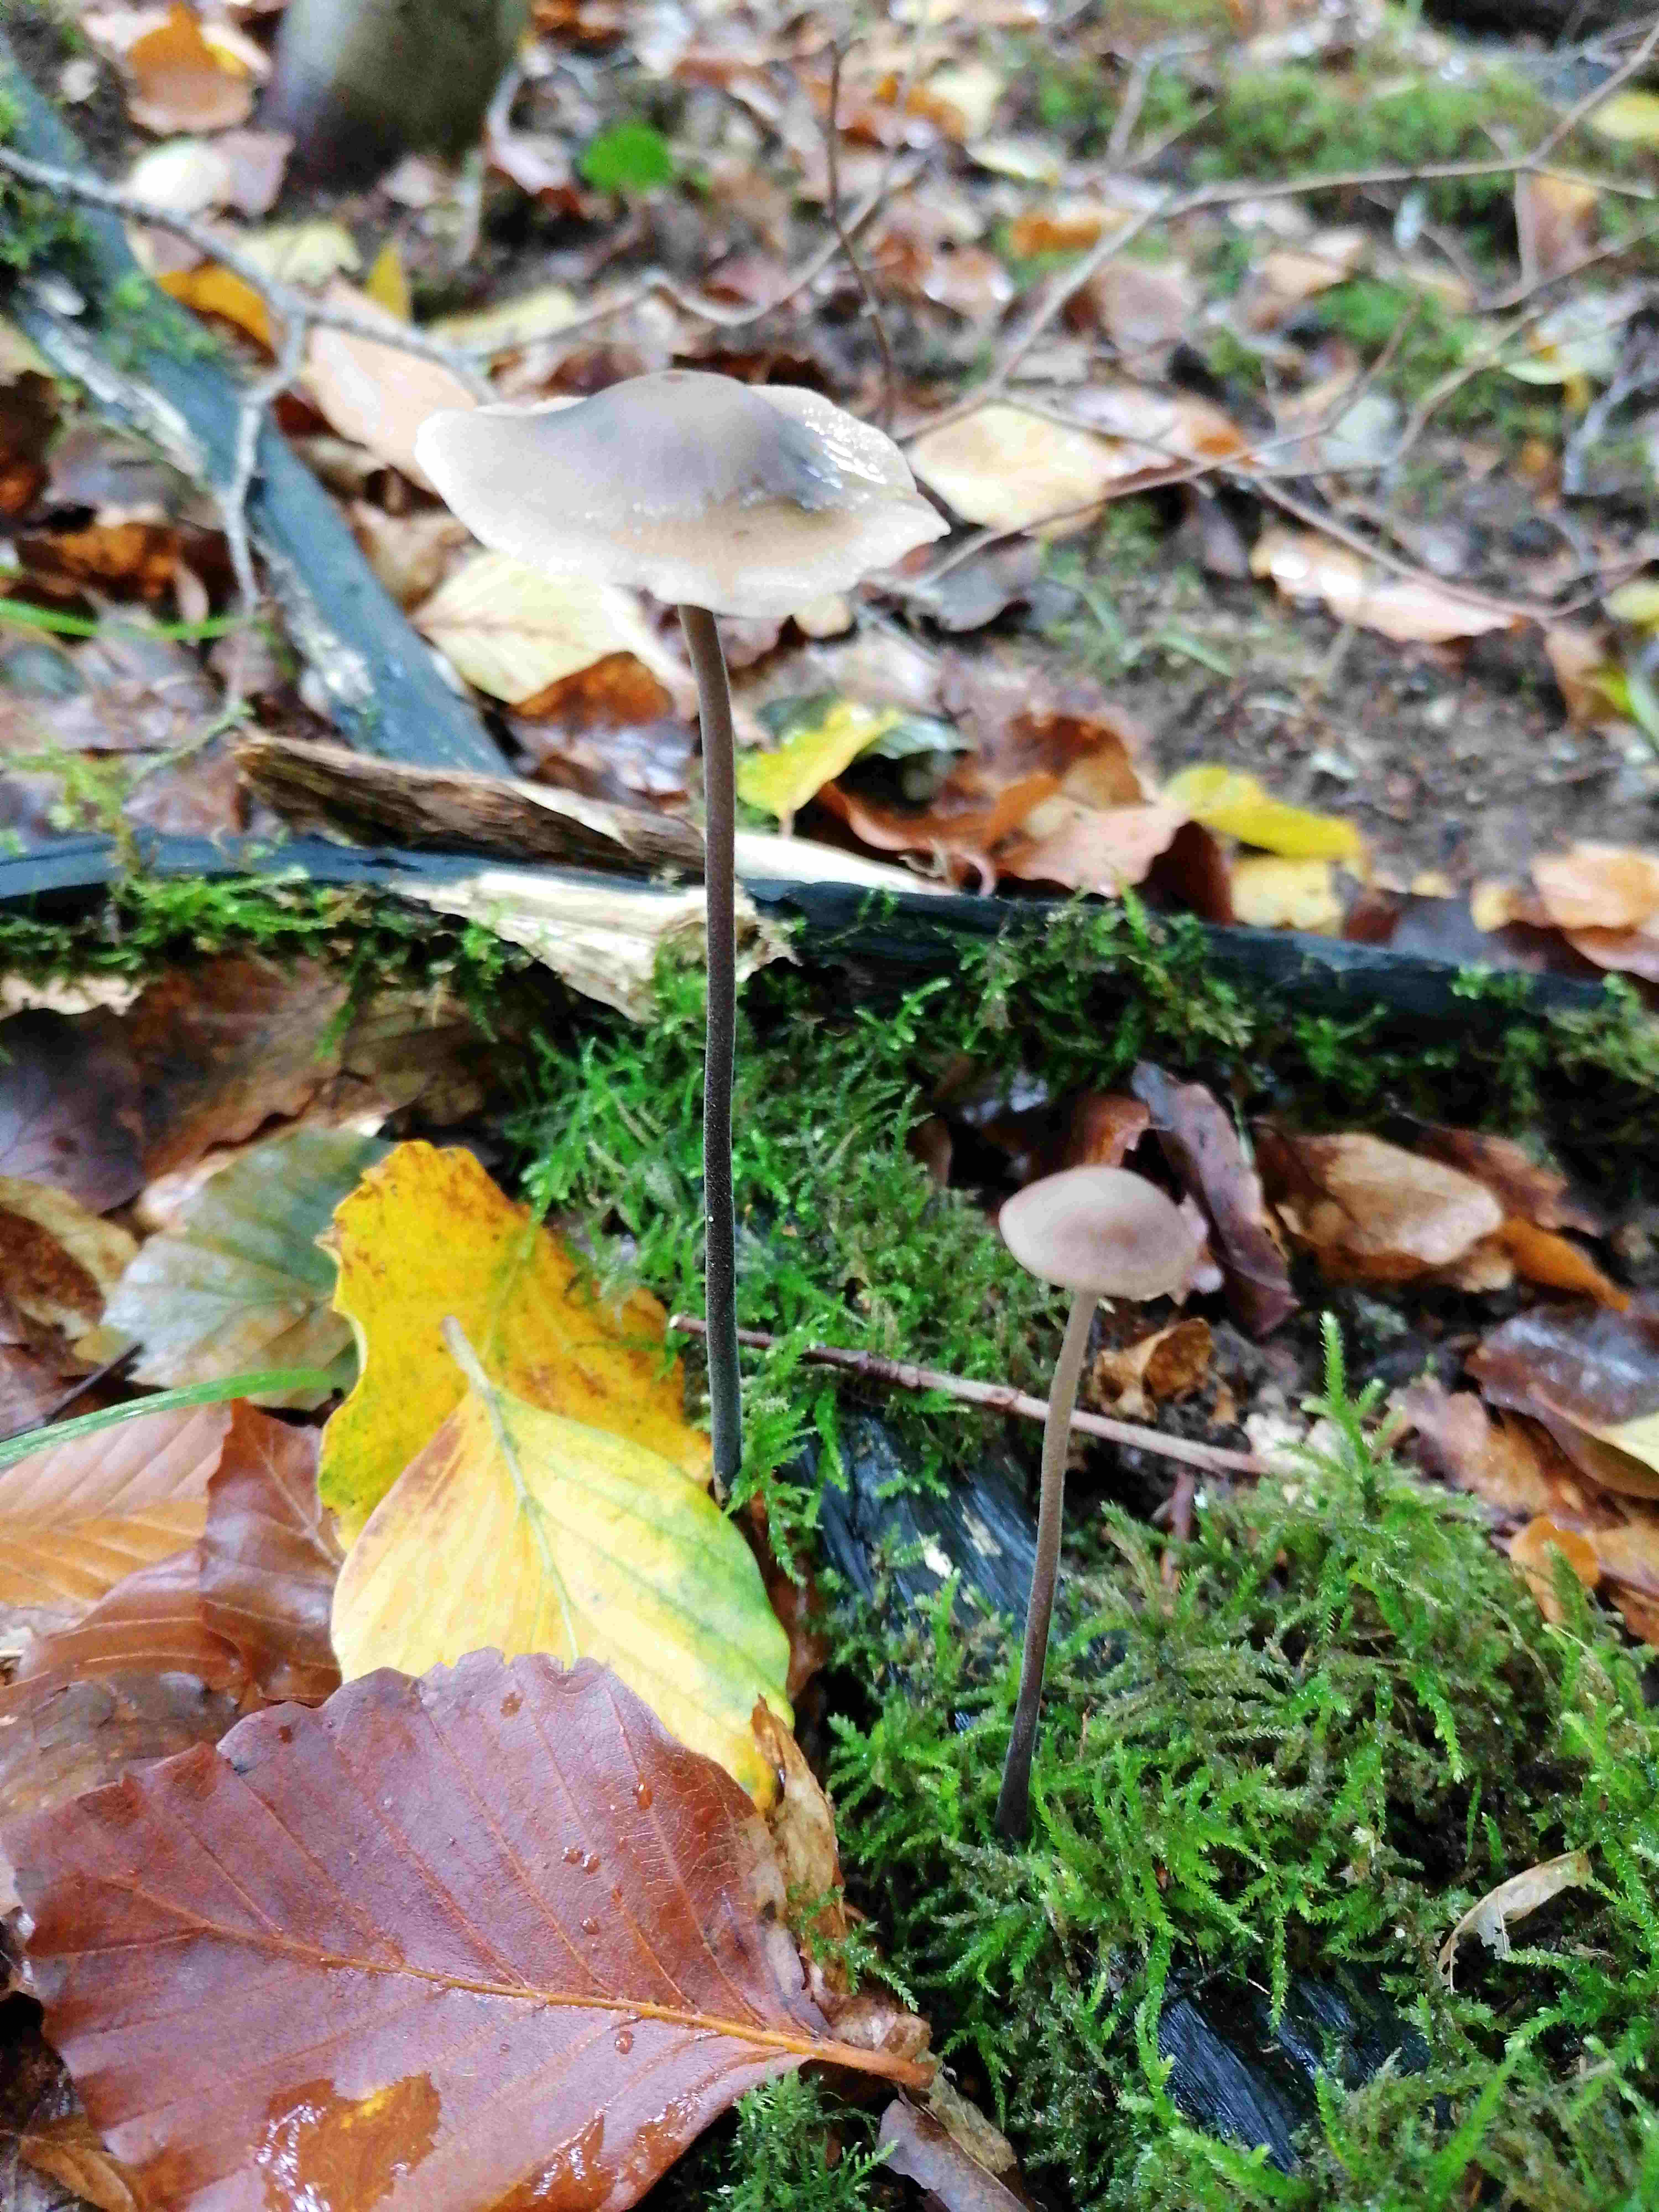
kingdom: Fungi
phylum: Basidiomycota
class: Agaricomycetes
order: Agaricales
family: Omphalotaceae
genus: Mycetinis
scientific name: Mycetinis alliaceus
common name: stor løghat
